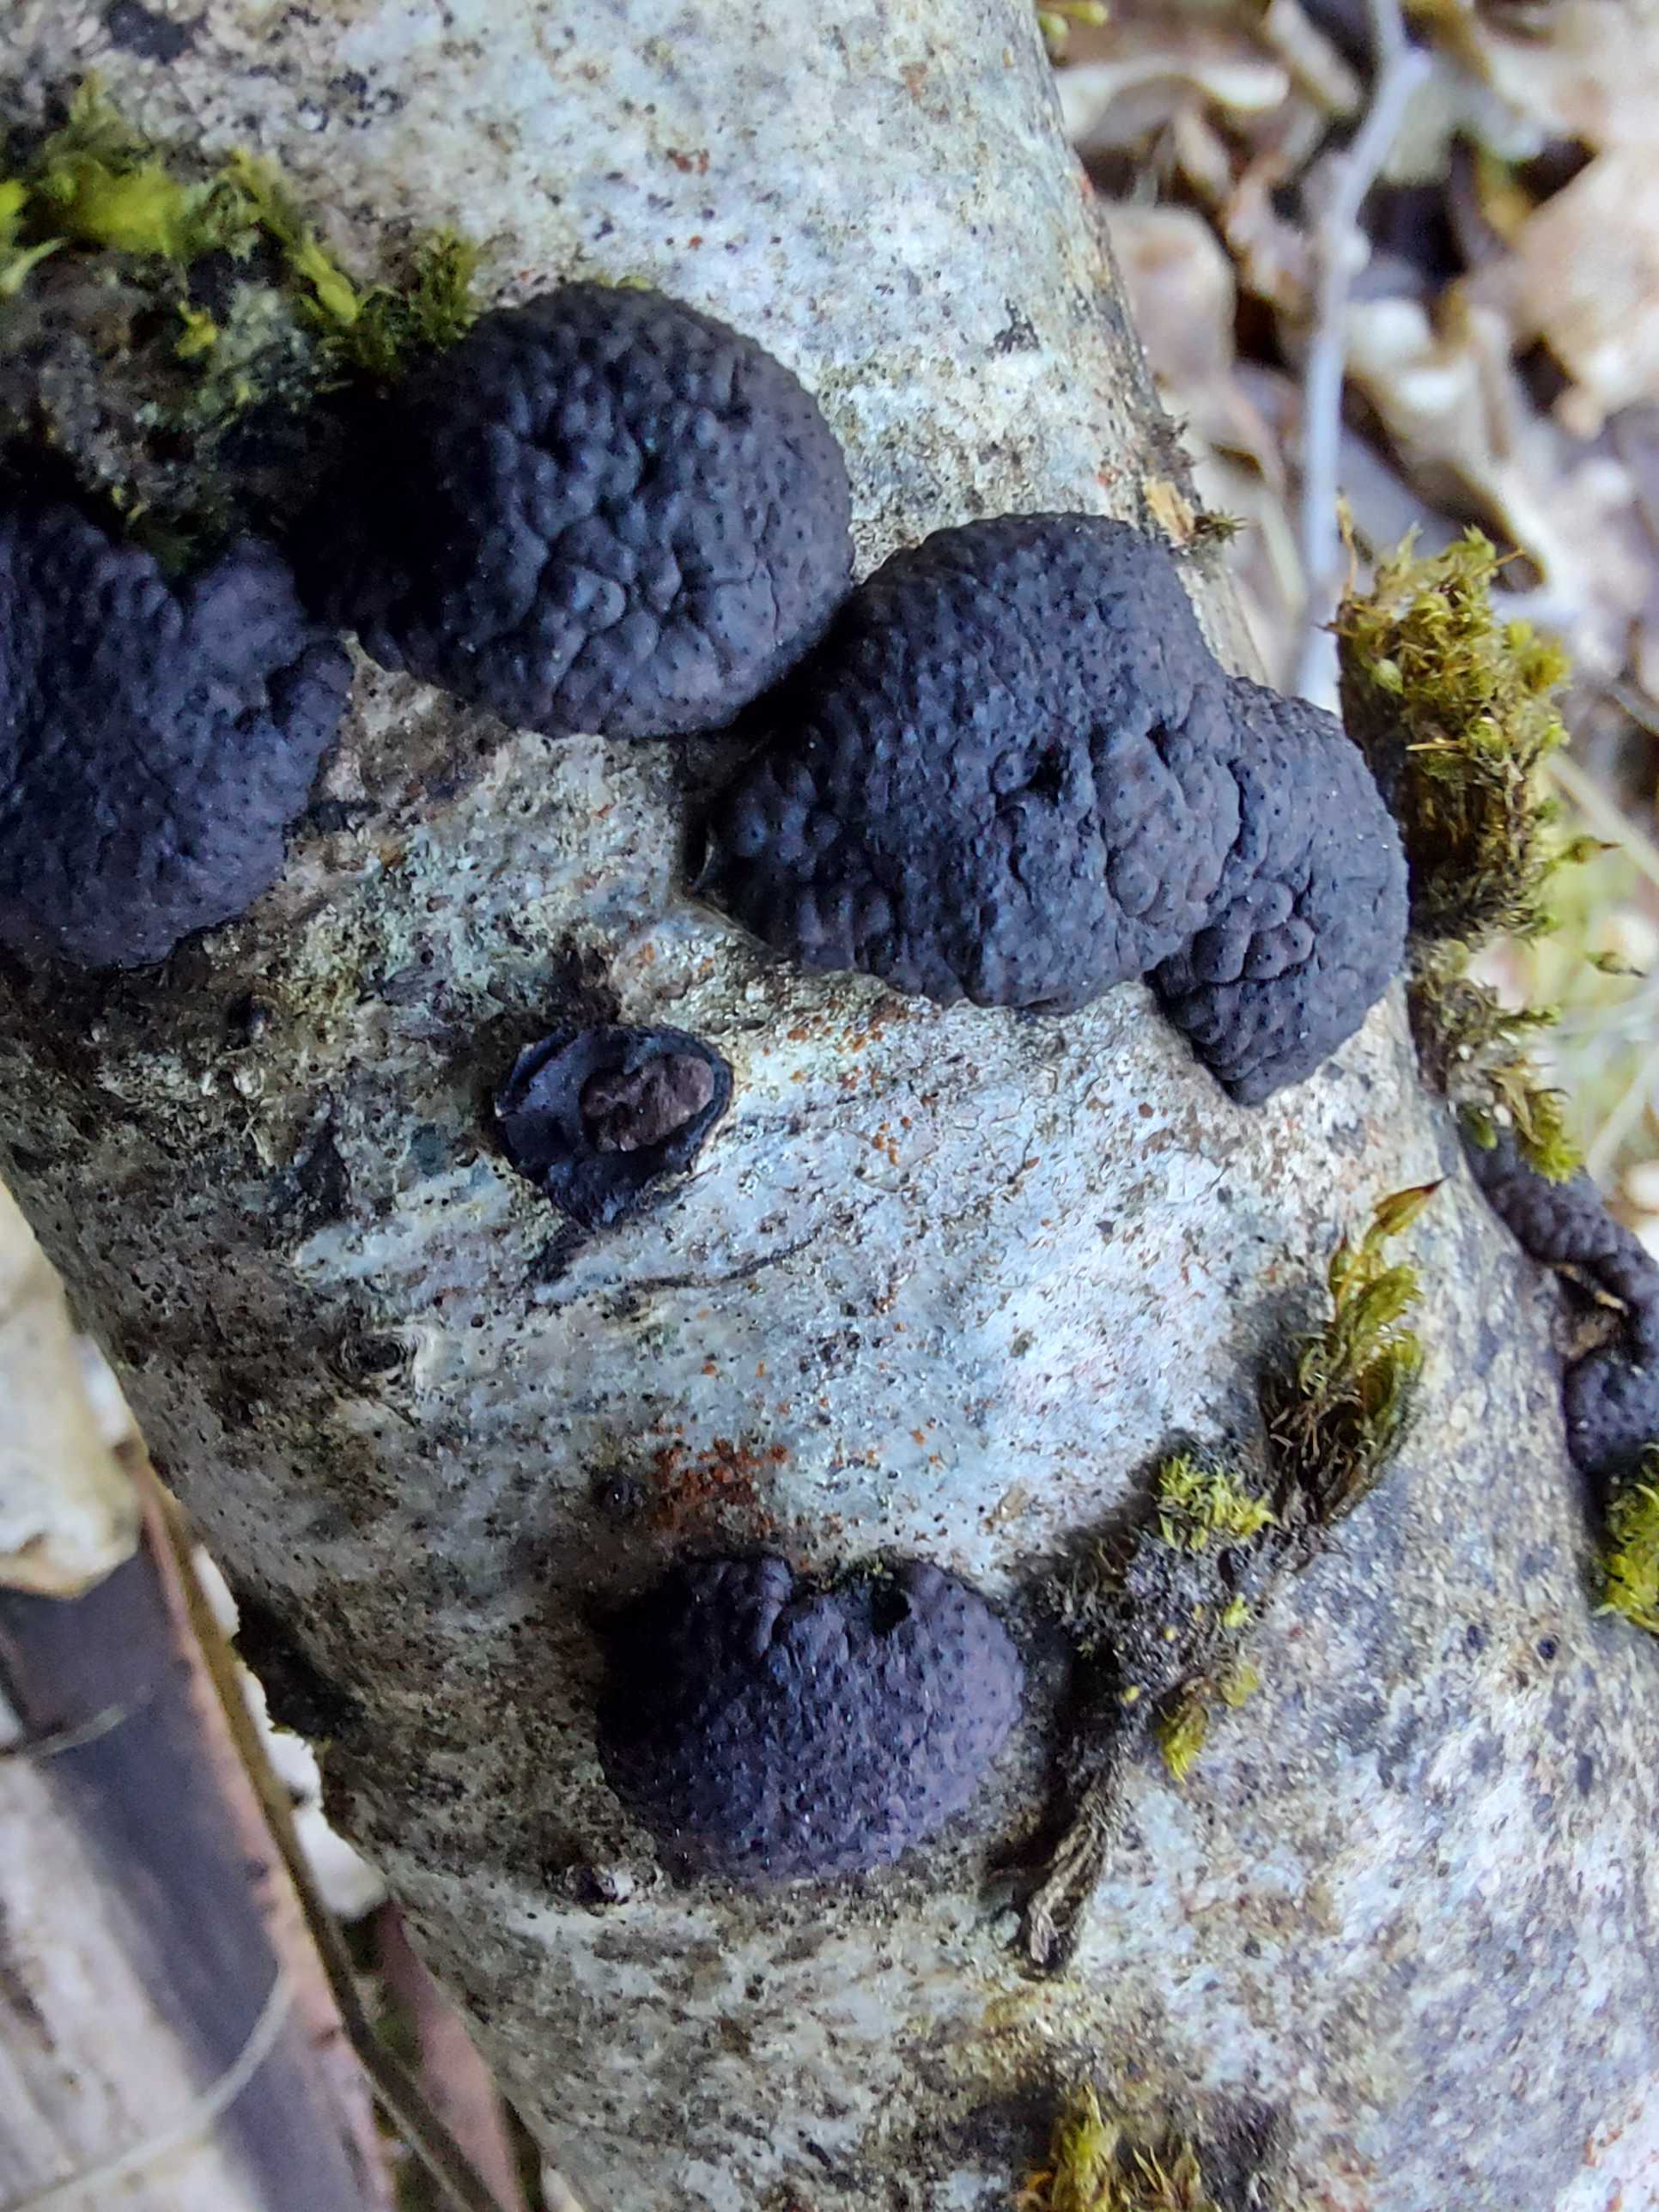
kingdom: Fungi
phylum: Ascomycota
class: Sordariomycetes
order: Xylariales
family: Hypoxylaceae
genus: Jackrogersella
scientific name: Jackrogersella multiformis
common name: foranderlig kulbær
